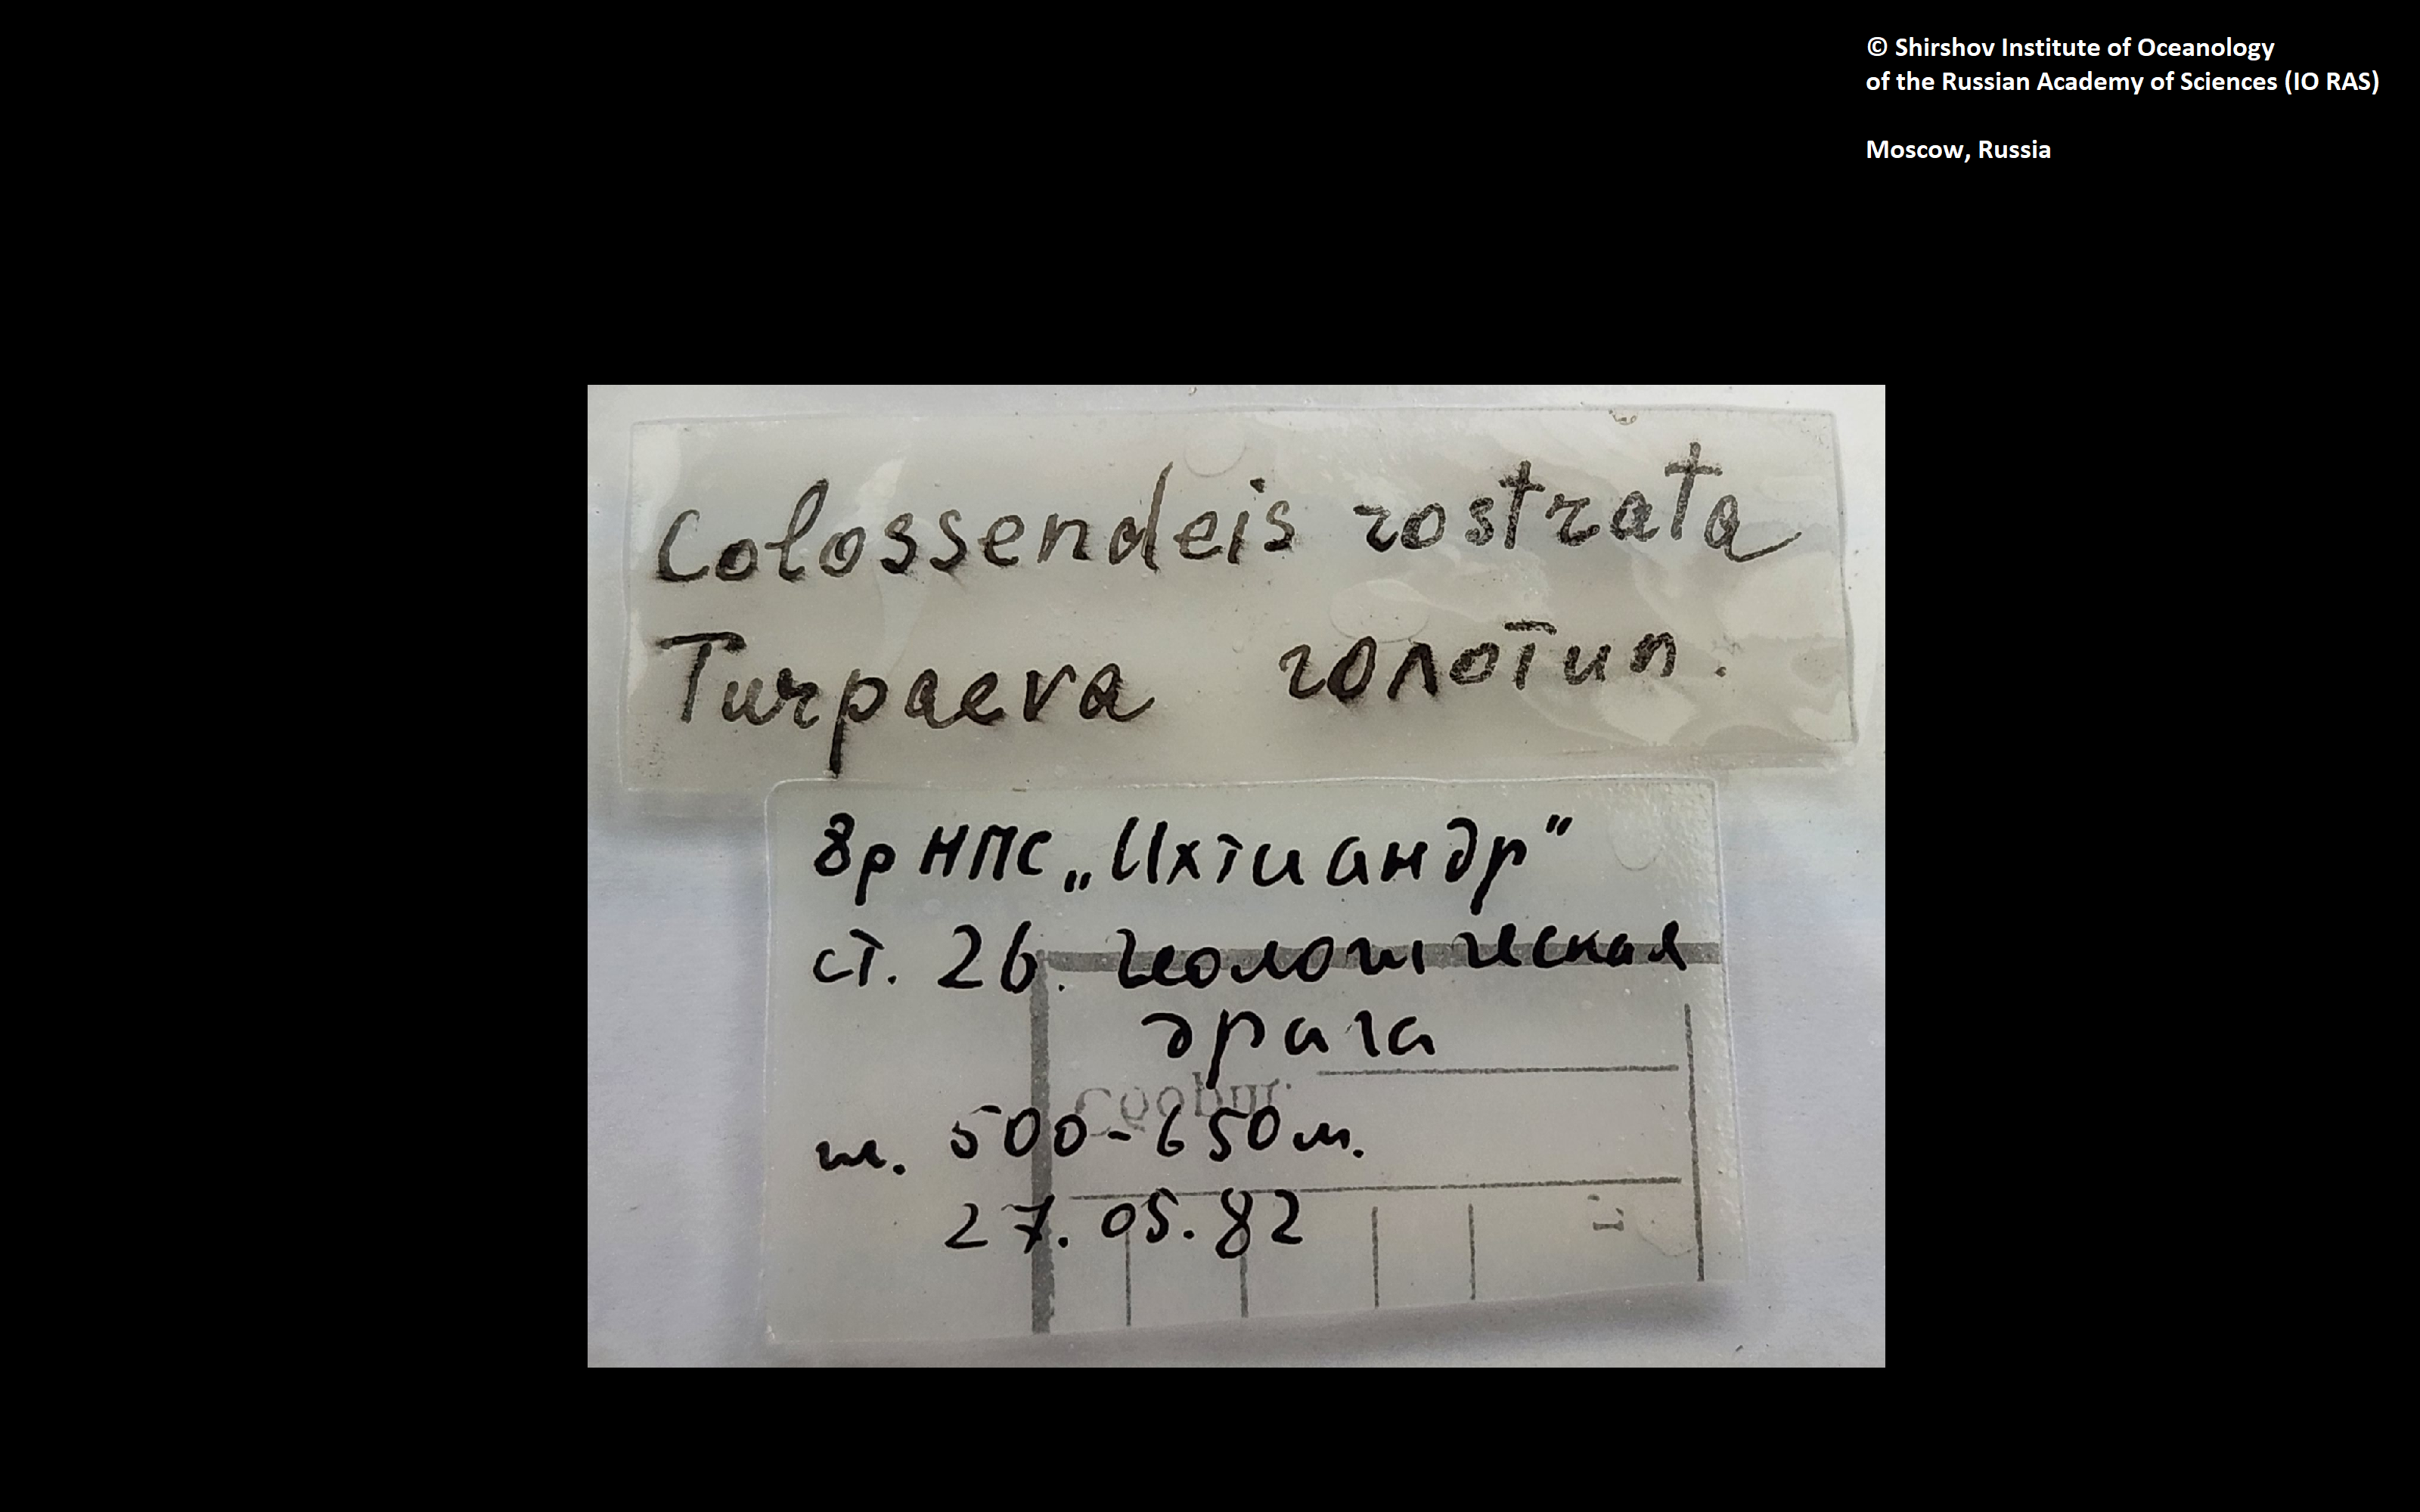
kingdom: Animalia
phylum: Arthropoda
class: Pycnogonida
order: Pantopoda
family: Colossendeidae
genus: Colossendeis
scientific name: Colossendeis rostrata
